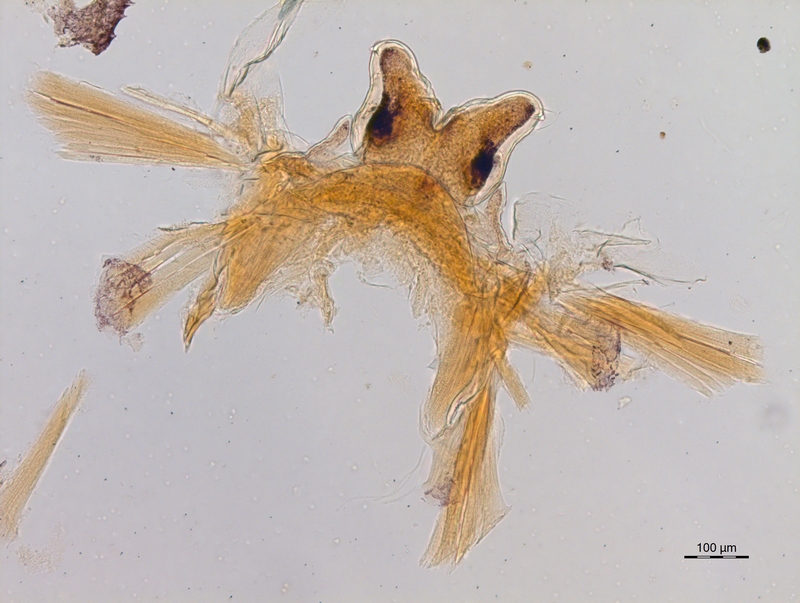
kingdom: Animalia
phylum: Arthropoda
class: Diplopoda
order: Chordeumatida
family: Craspedosomatidae
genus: Ochogona
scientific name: Ochogona caroli
